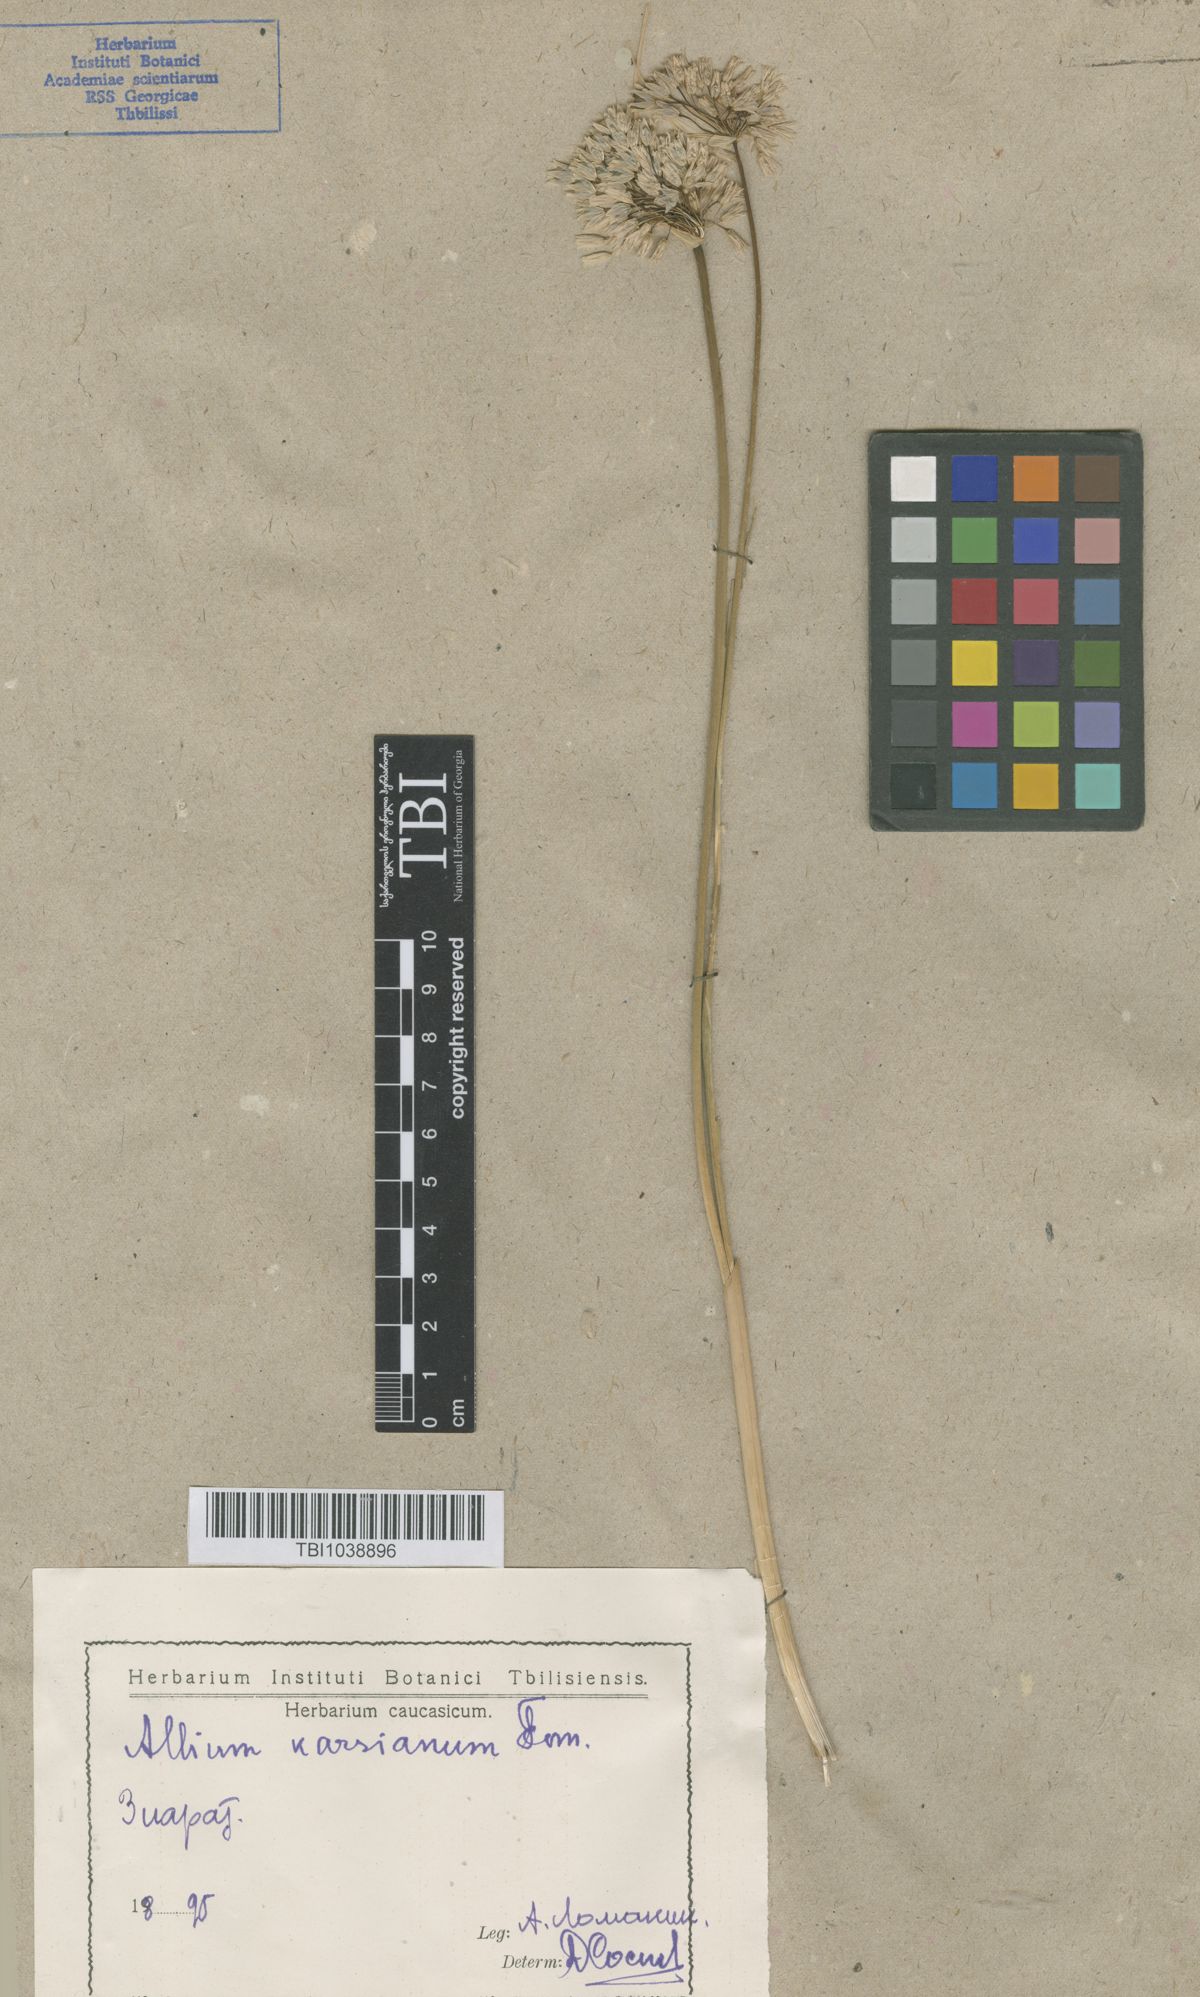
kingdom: Plantae
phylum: Tracheophyta
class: Liliopsida
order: Asparagales
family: Amaryllidaceae
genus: Allium
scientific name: Allium paniculatum
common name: Pale garlic
